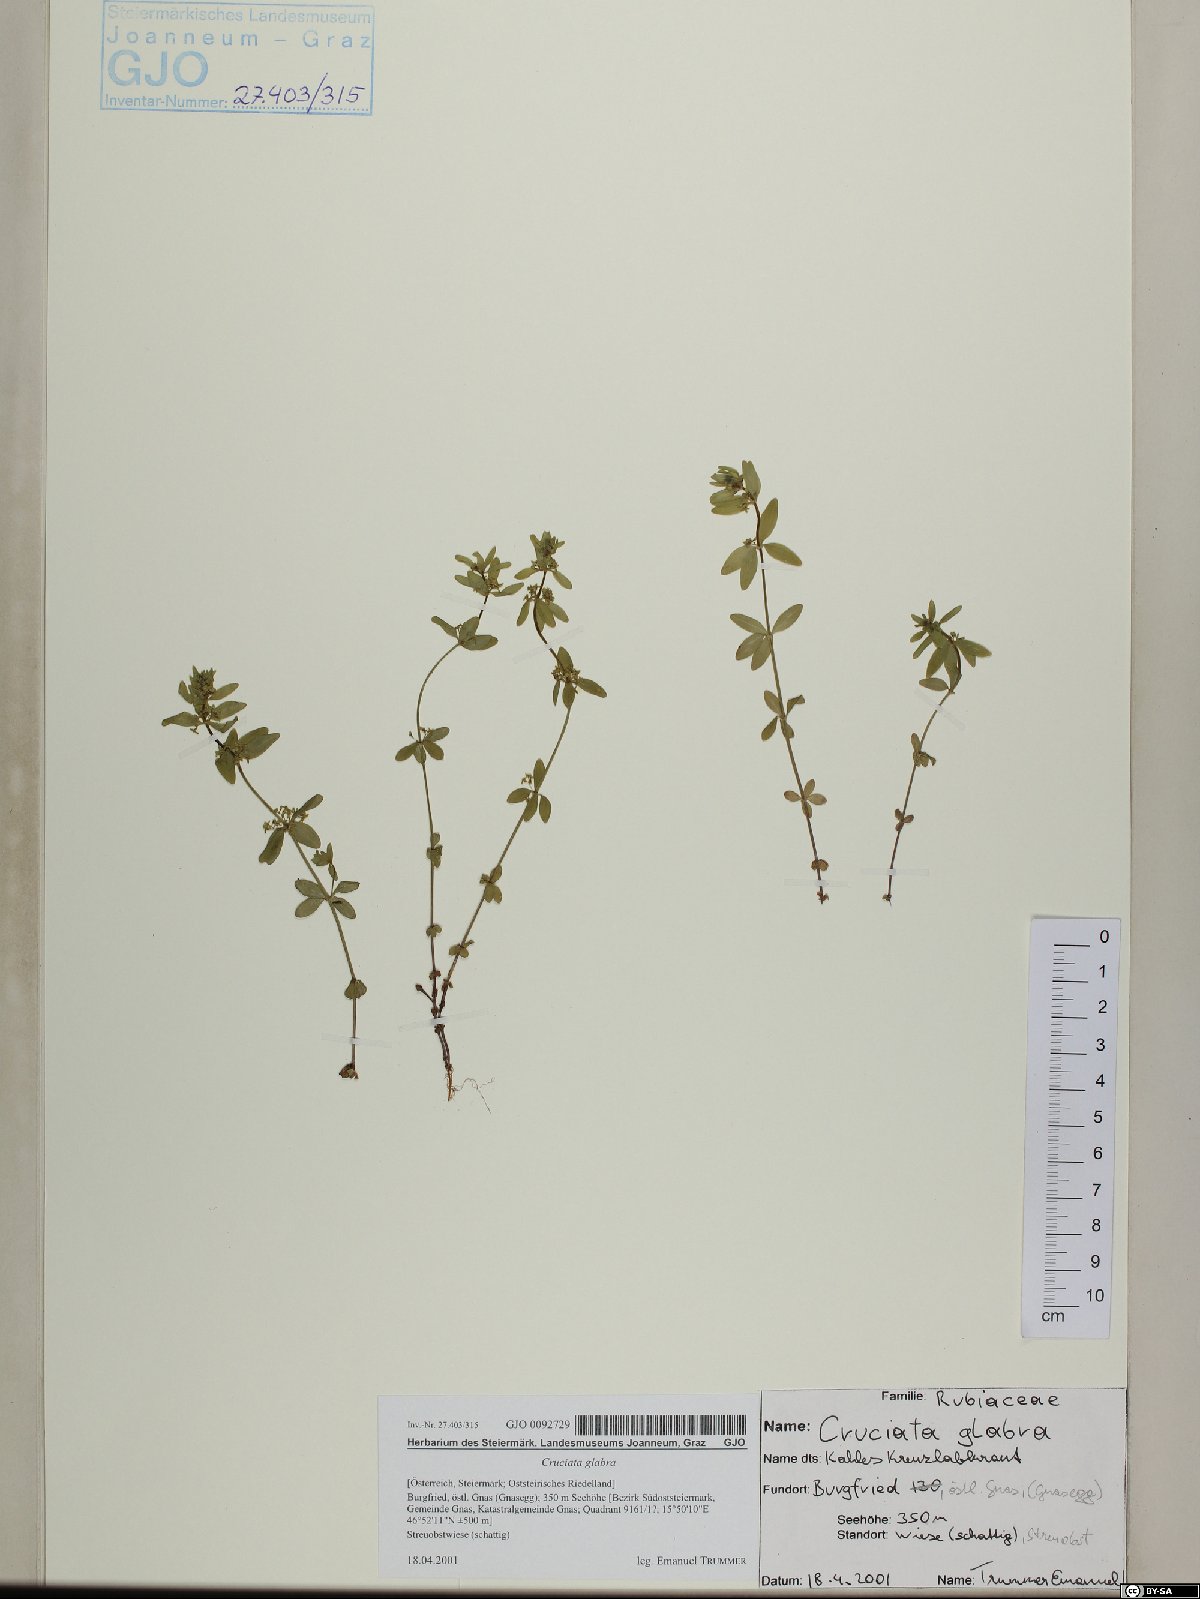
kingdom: Plantae
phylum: Tracheophyta
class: Magnoliopsida
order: Gentianales
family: Rubiaceae
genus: Cruciata
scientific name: Cruciata glabra
